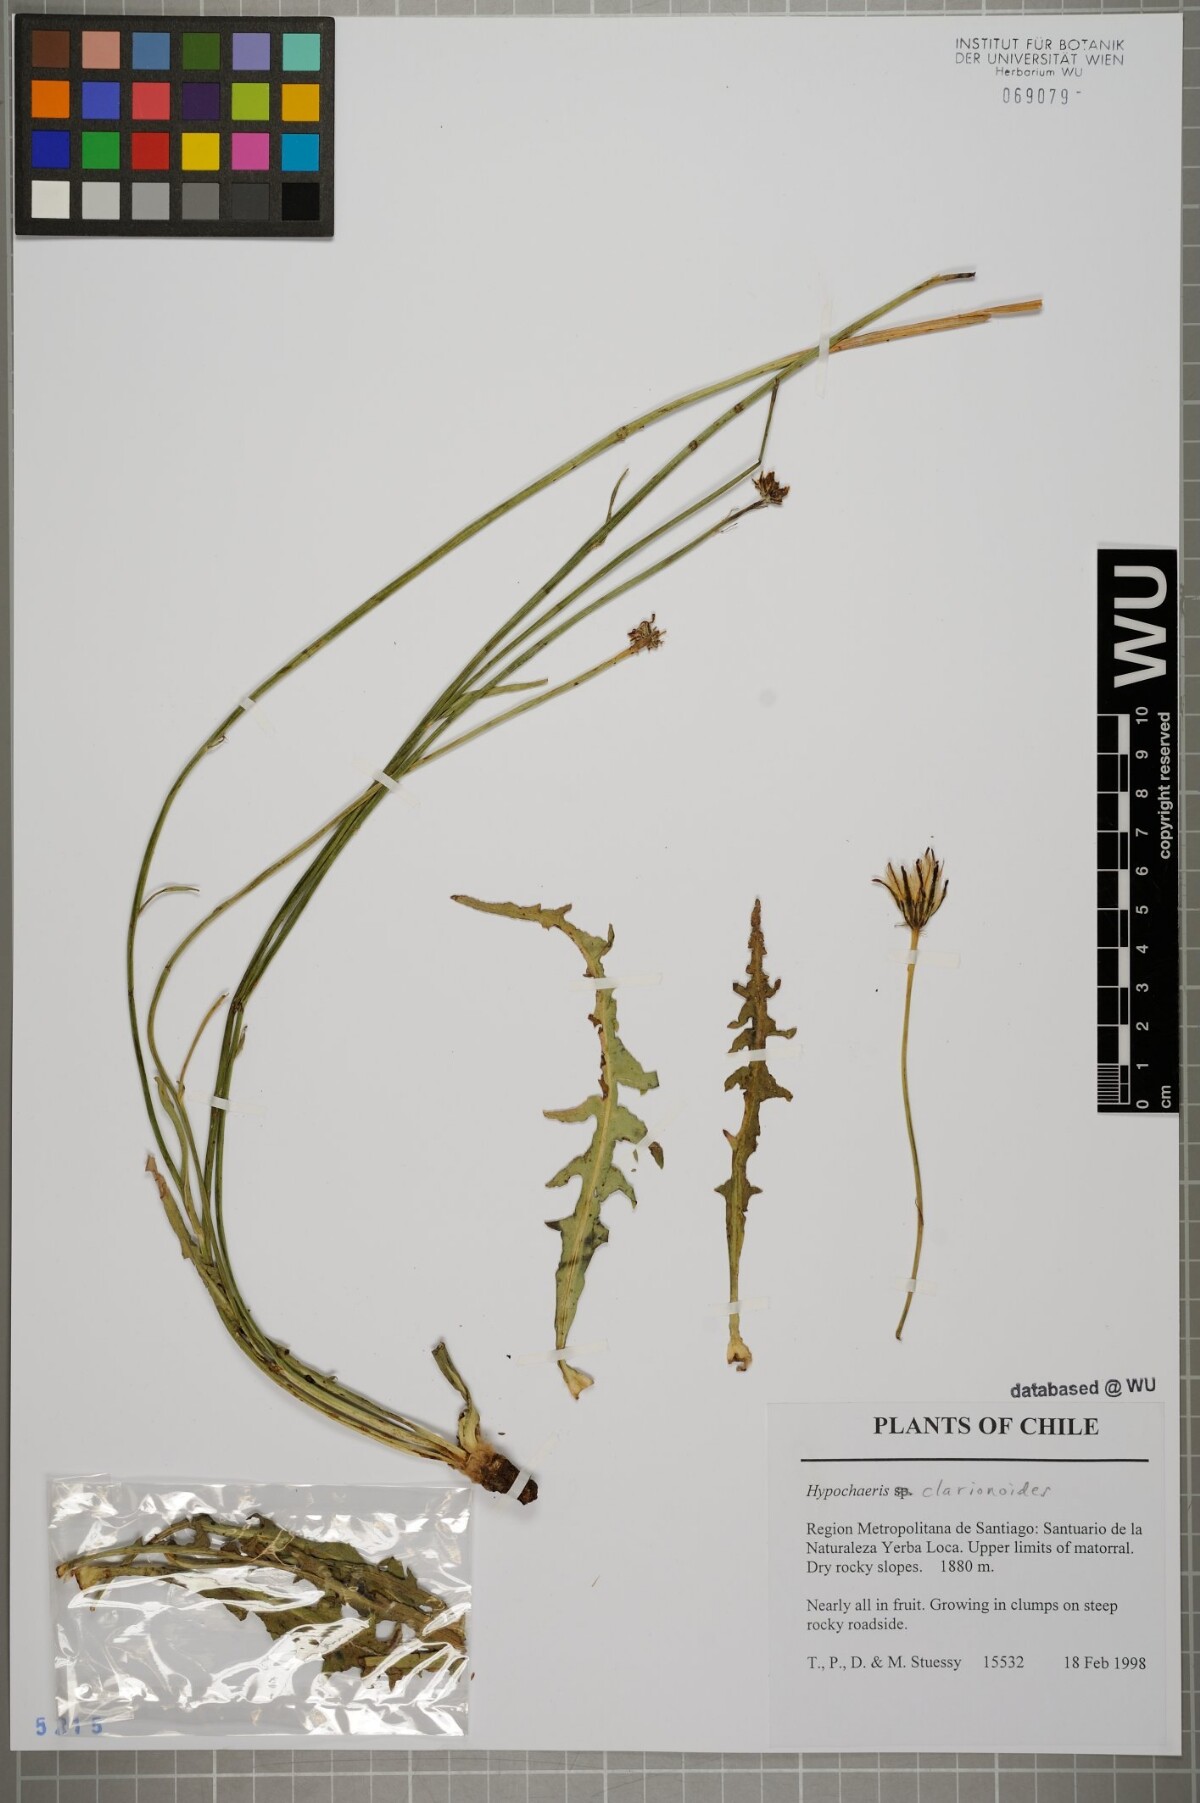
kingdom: Plantae
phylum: Tracheophyta
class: Magnoliopsida
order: Asterales
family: Asteraceae
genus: Hypochaeris
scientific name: Hypochaeris clarionoides
